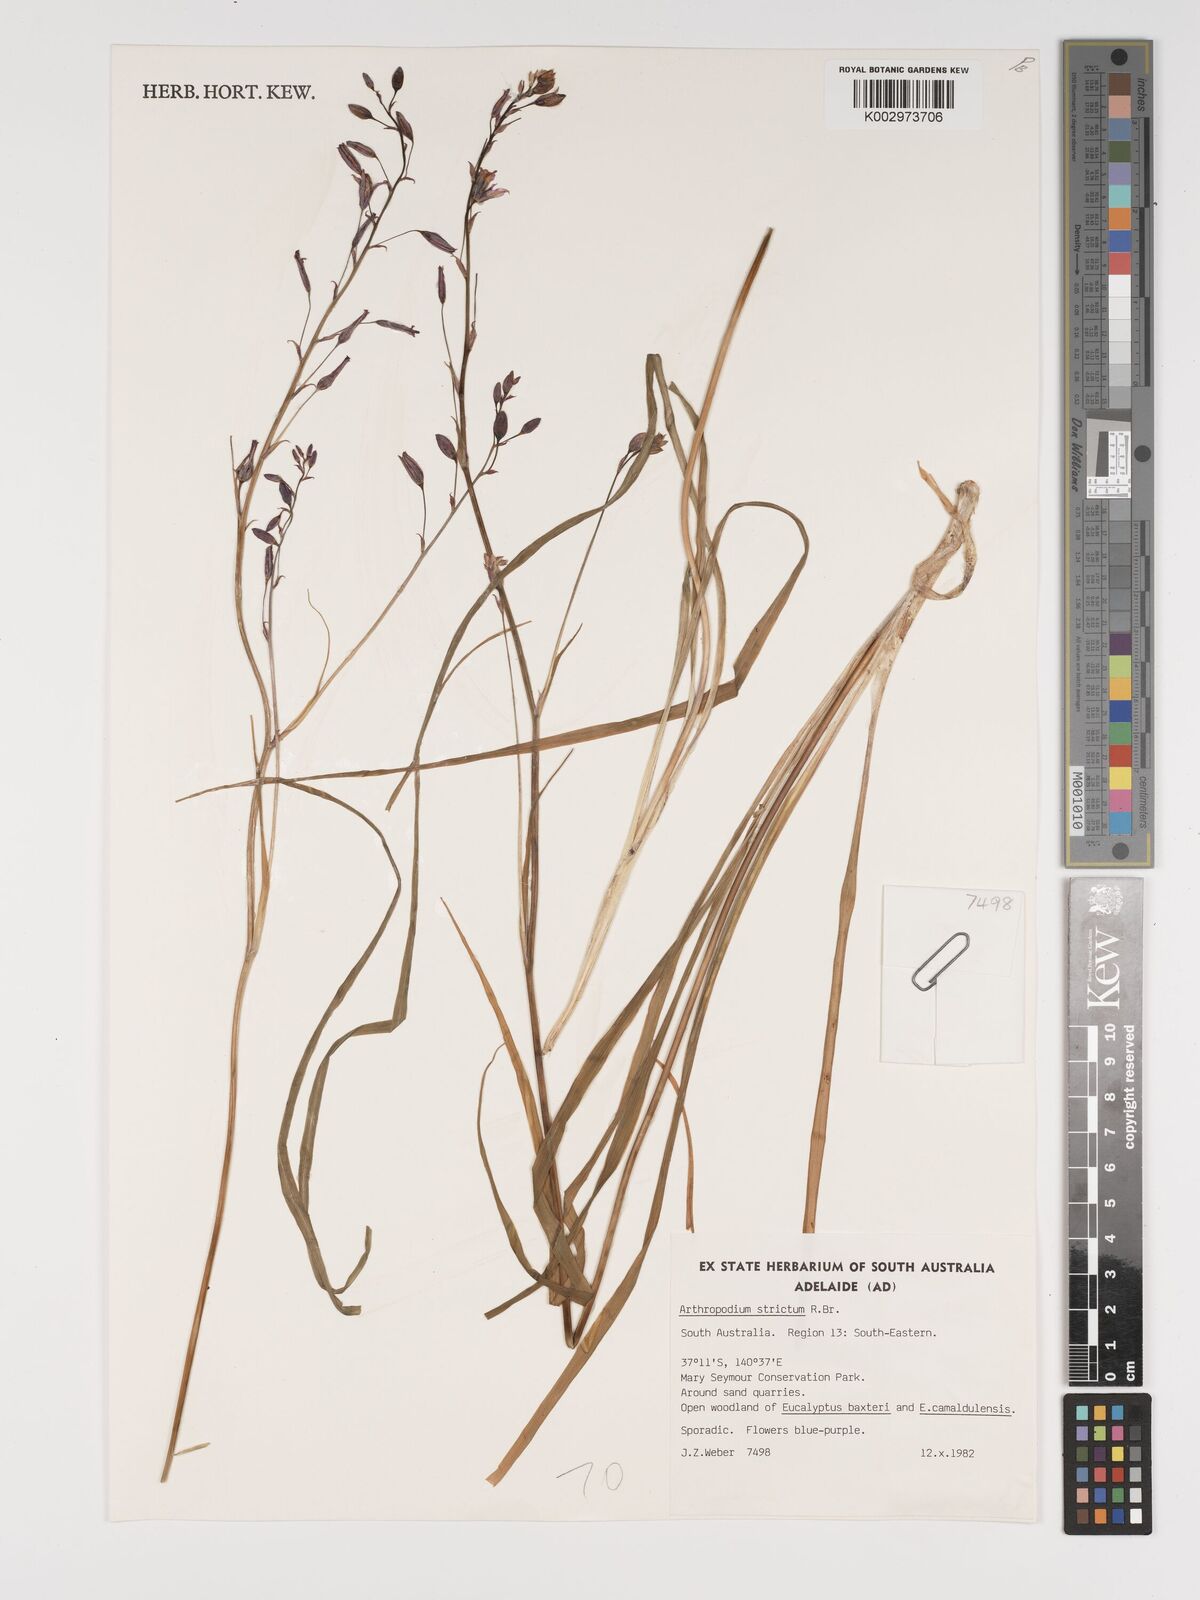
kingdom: Plantae
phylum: Tracheophyta
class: Liliopsida
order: Asparagales
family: Asparagaceae
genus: Arthropodium
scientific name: Arthropodium strictum
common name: Chocolate-lily
